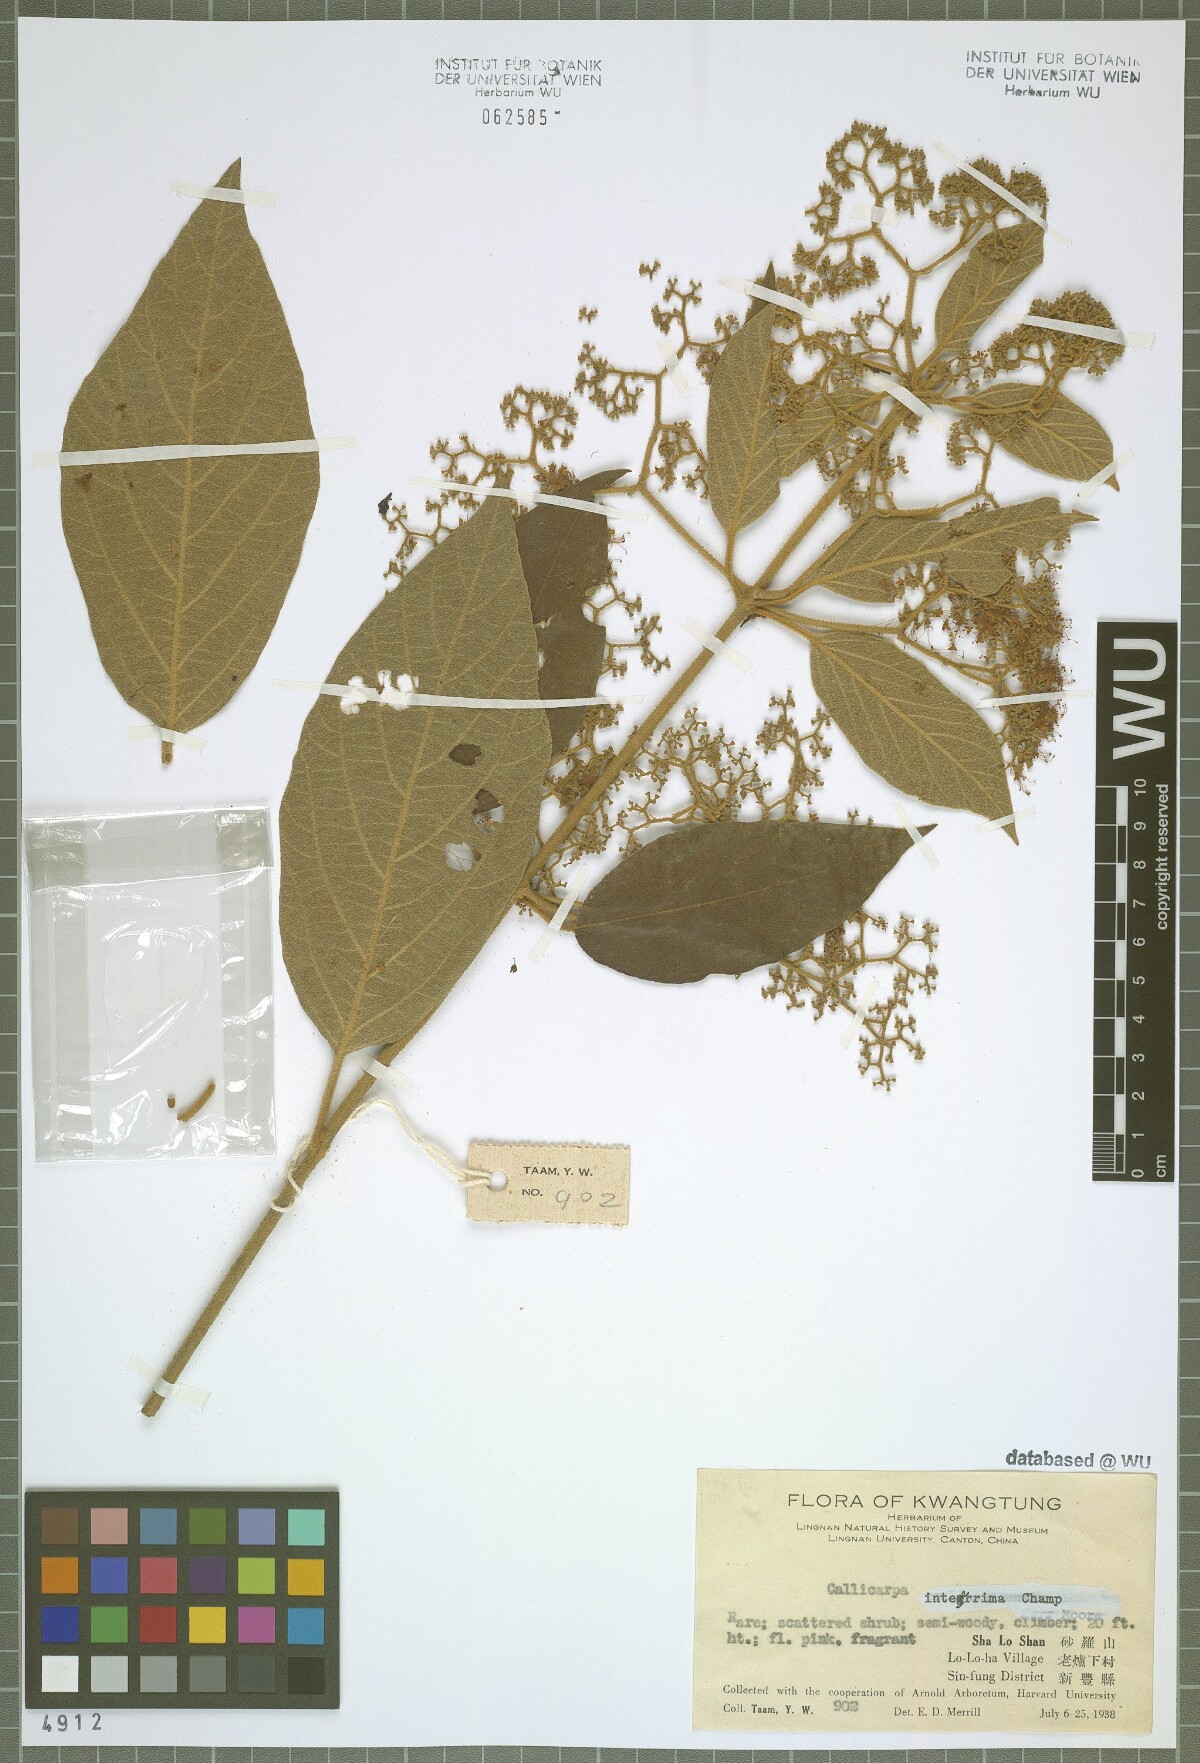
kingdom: Plantae
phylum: Tracheophyta
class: Magnoliopsida
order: Lamiales
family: Lamiaceae
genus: Callicarpa
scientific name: Callicarpa integerrima
